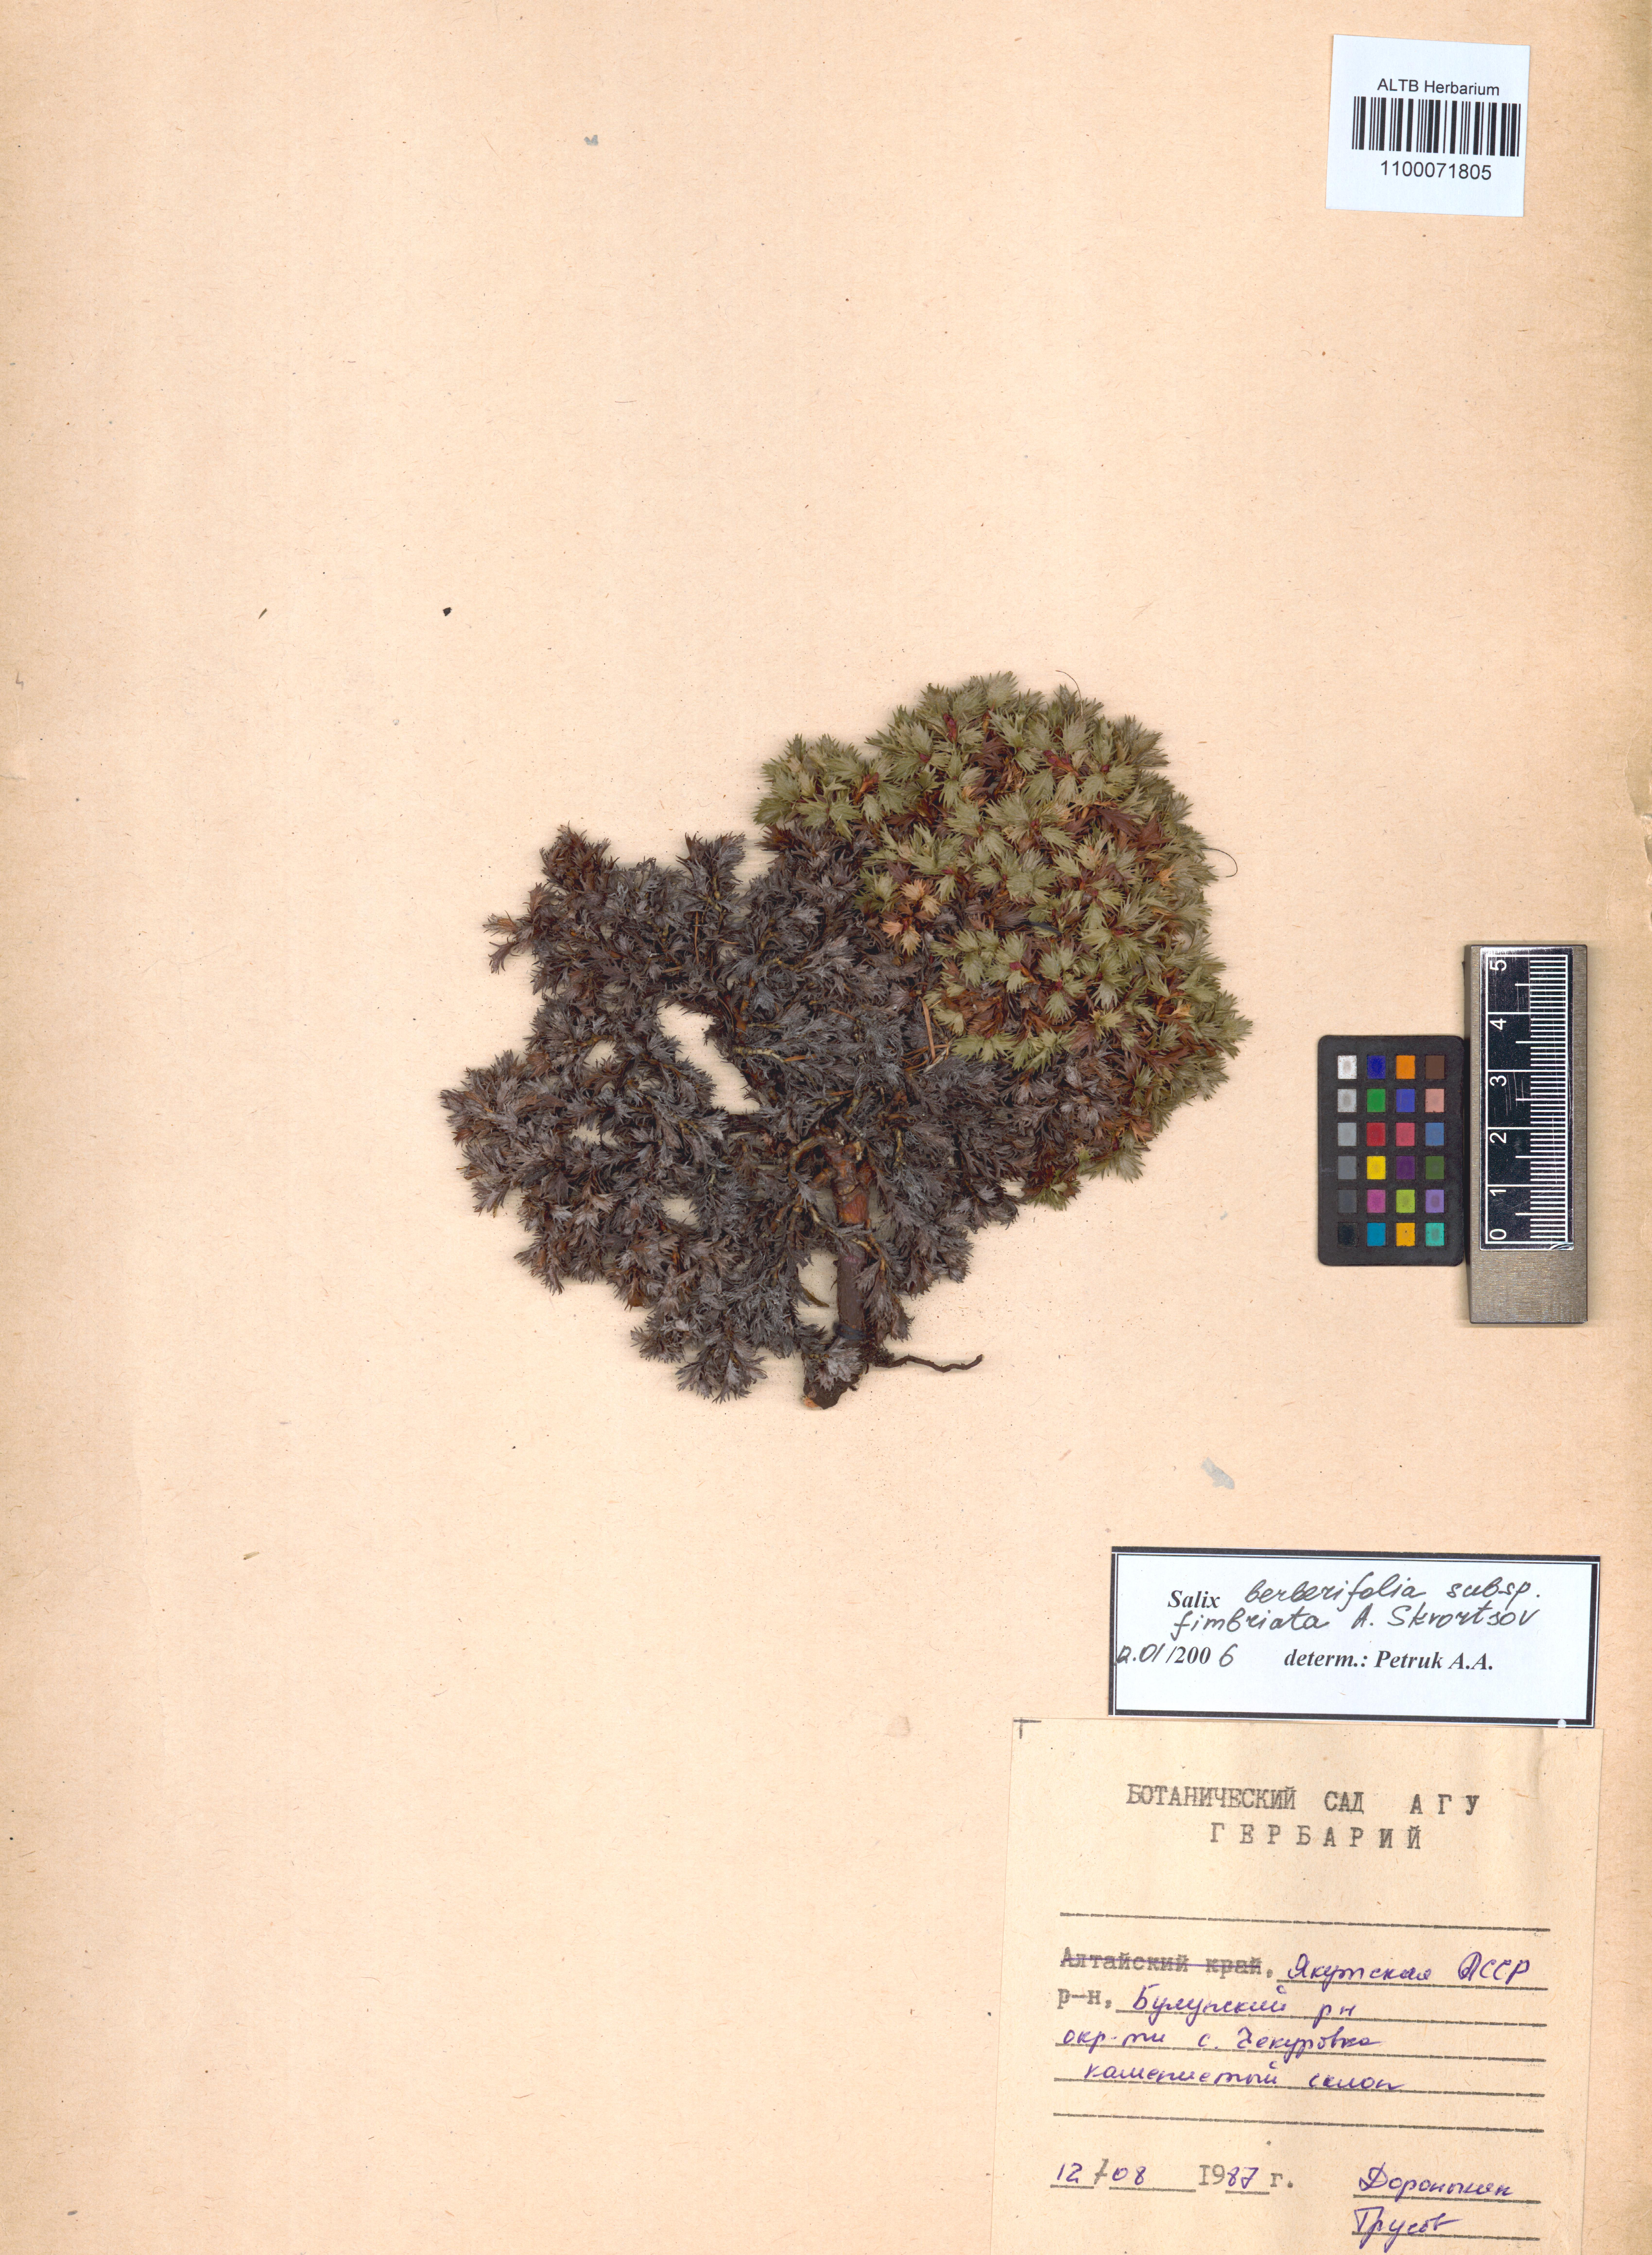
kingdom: Plantae
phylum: Tracheophyta
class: Magnoliopsida
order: Malpighiales
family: Salicaceae
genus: Salix
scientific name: Salix berberifolia
